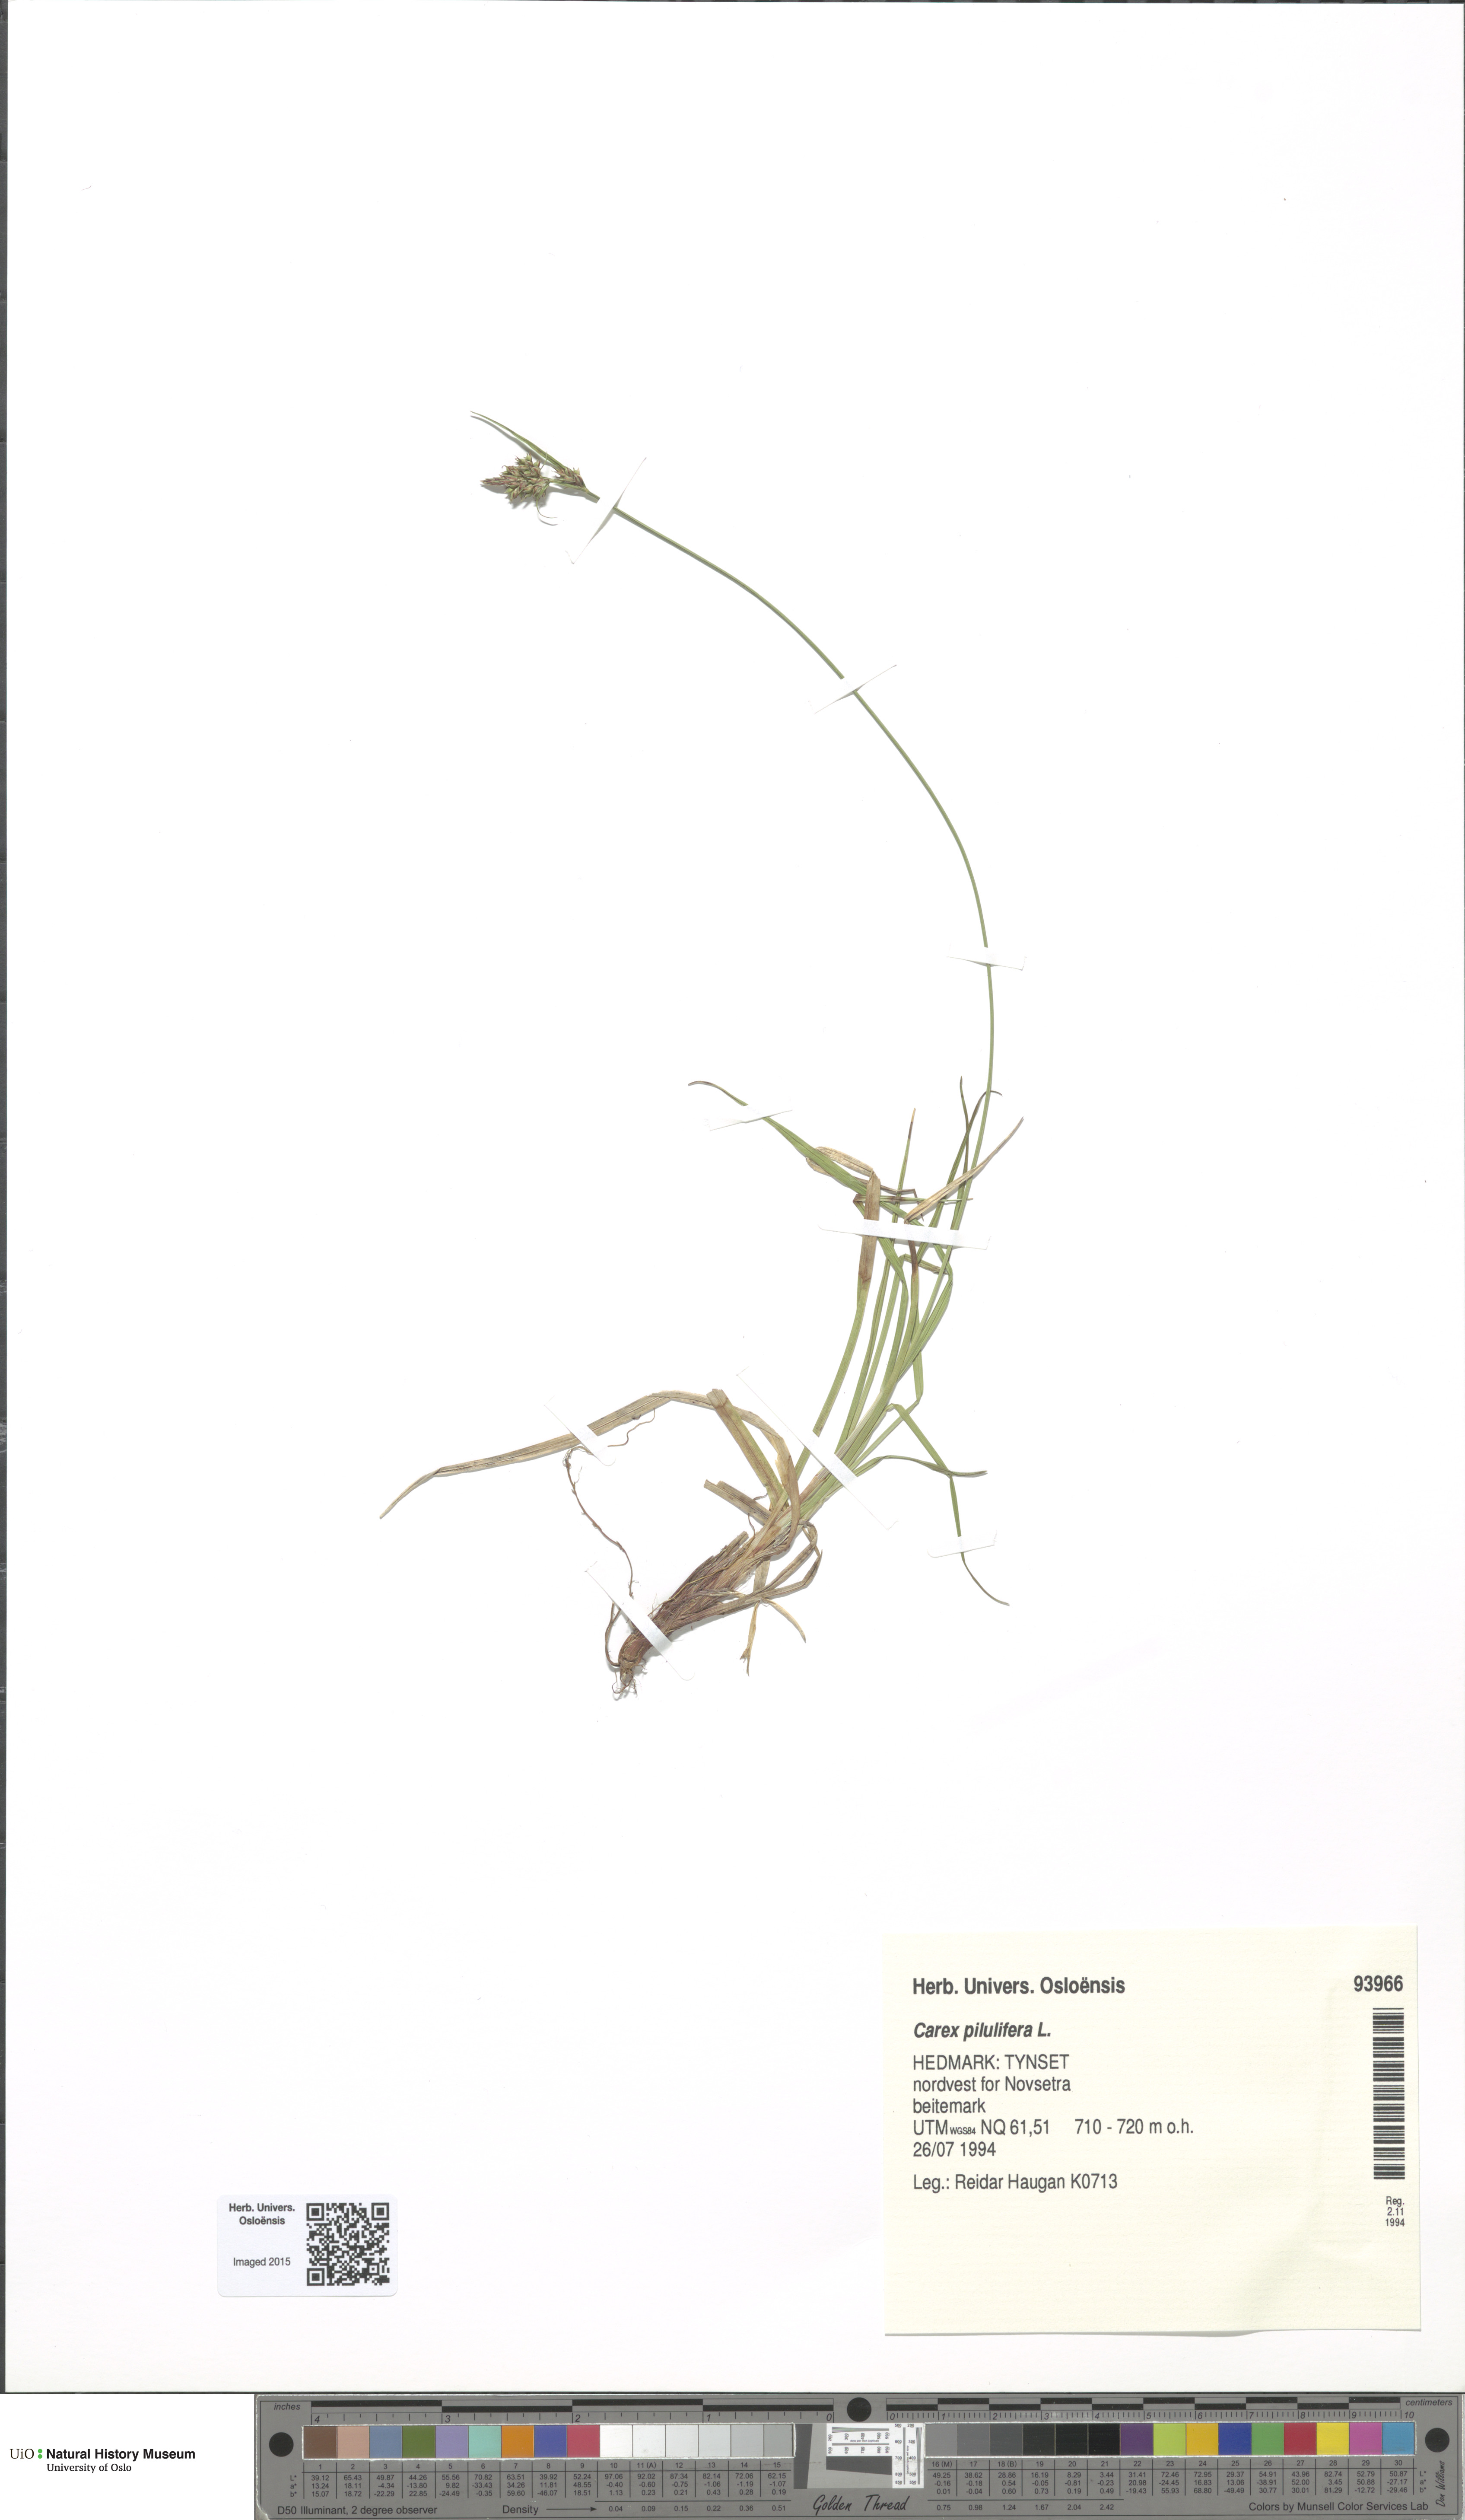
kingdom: Plantae
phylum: Tracheophyta
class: Liliopsida
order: Poales
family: Cyperaceae
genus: Carex
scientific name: Carex pilulifera
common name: Pill sedge
